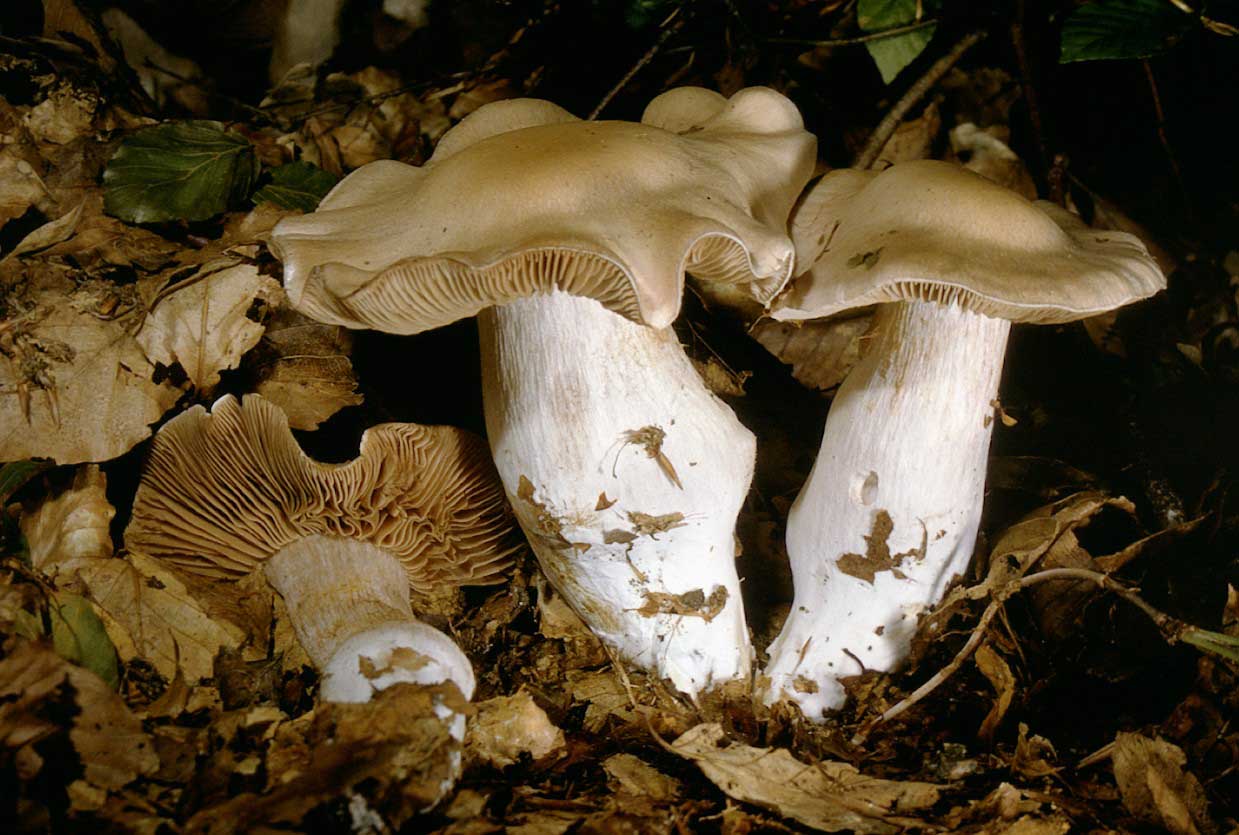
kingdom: Fungi
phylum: Basidiomycota
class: Agaricomycetes
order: Agaricales
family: Cortinariaceae
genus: Cortinarius
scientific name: Cortinarius turgidus
